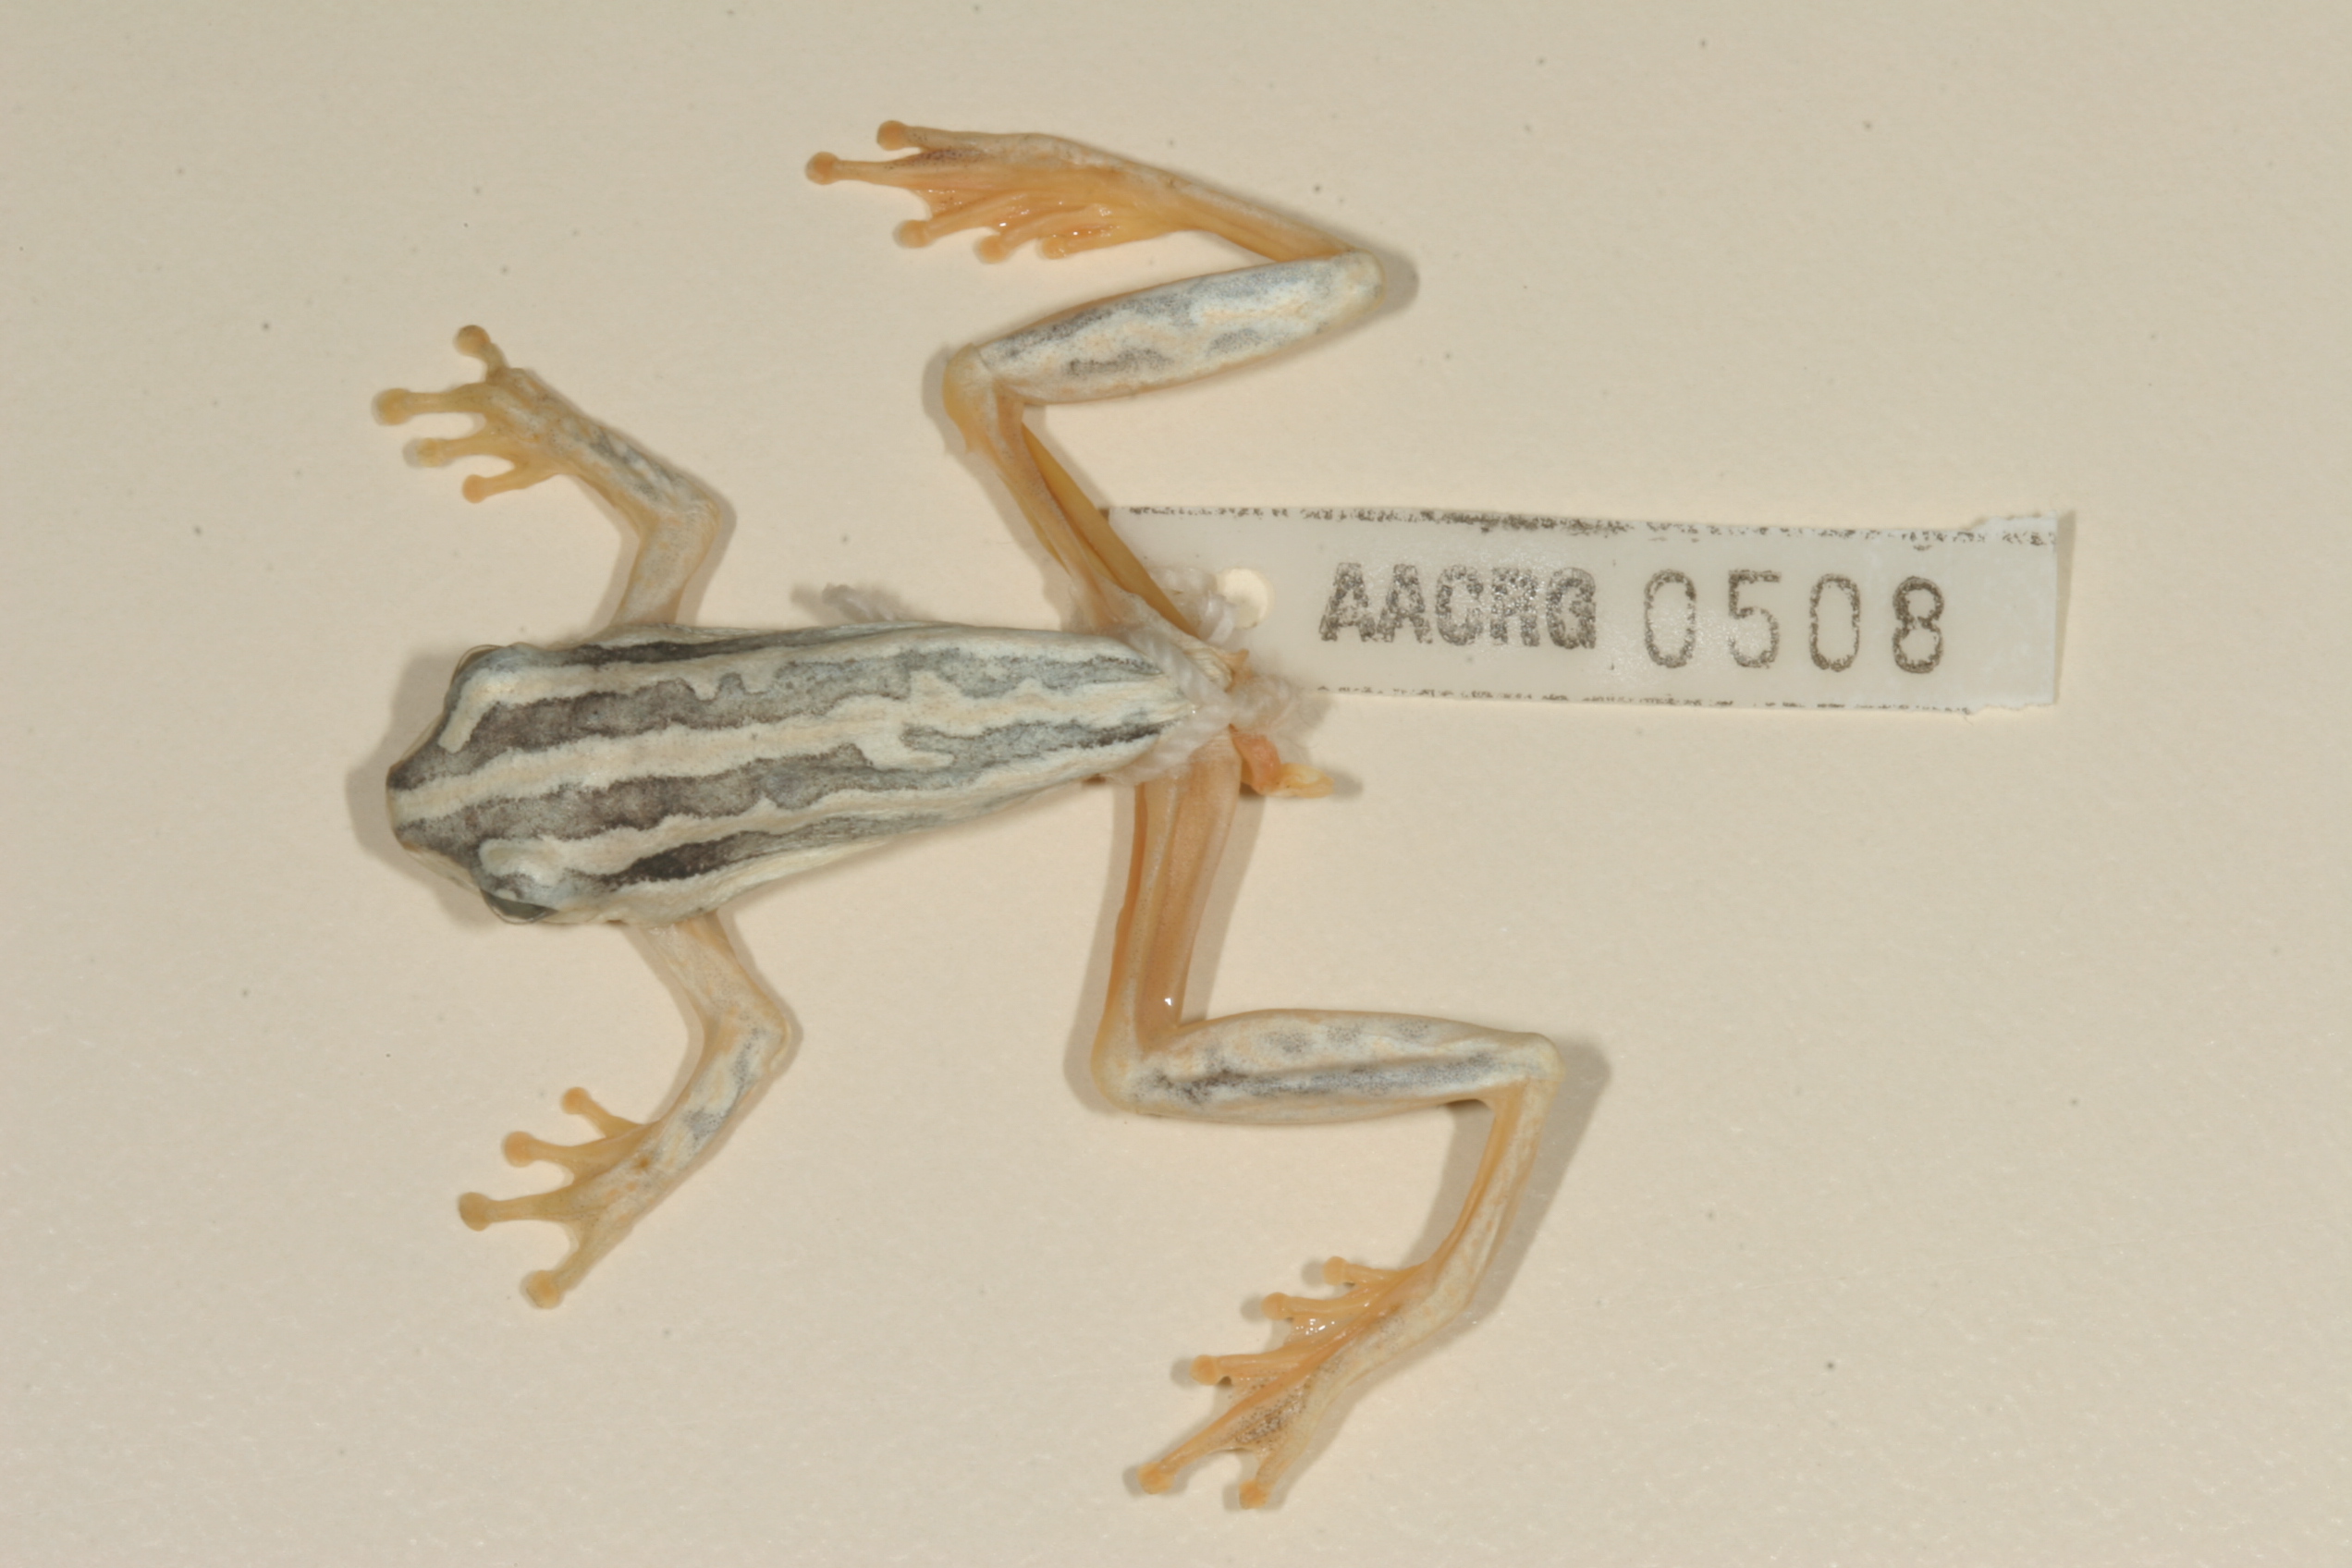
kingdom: Animalia
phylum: Chordata
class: Amphibia
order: Anura
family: Hyperoliidae
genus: Hyperolius
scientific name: Hyperolius marmoratus
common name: Painted reed frog
